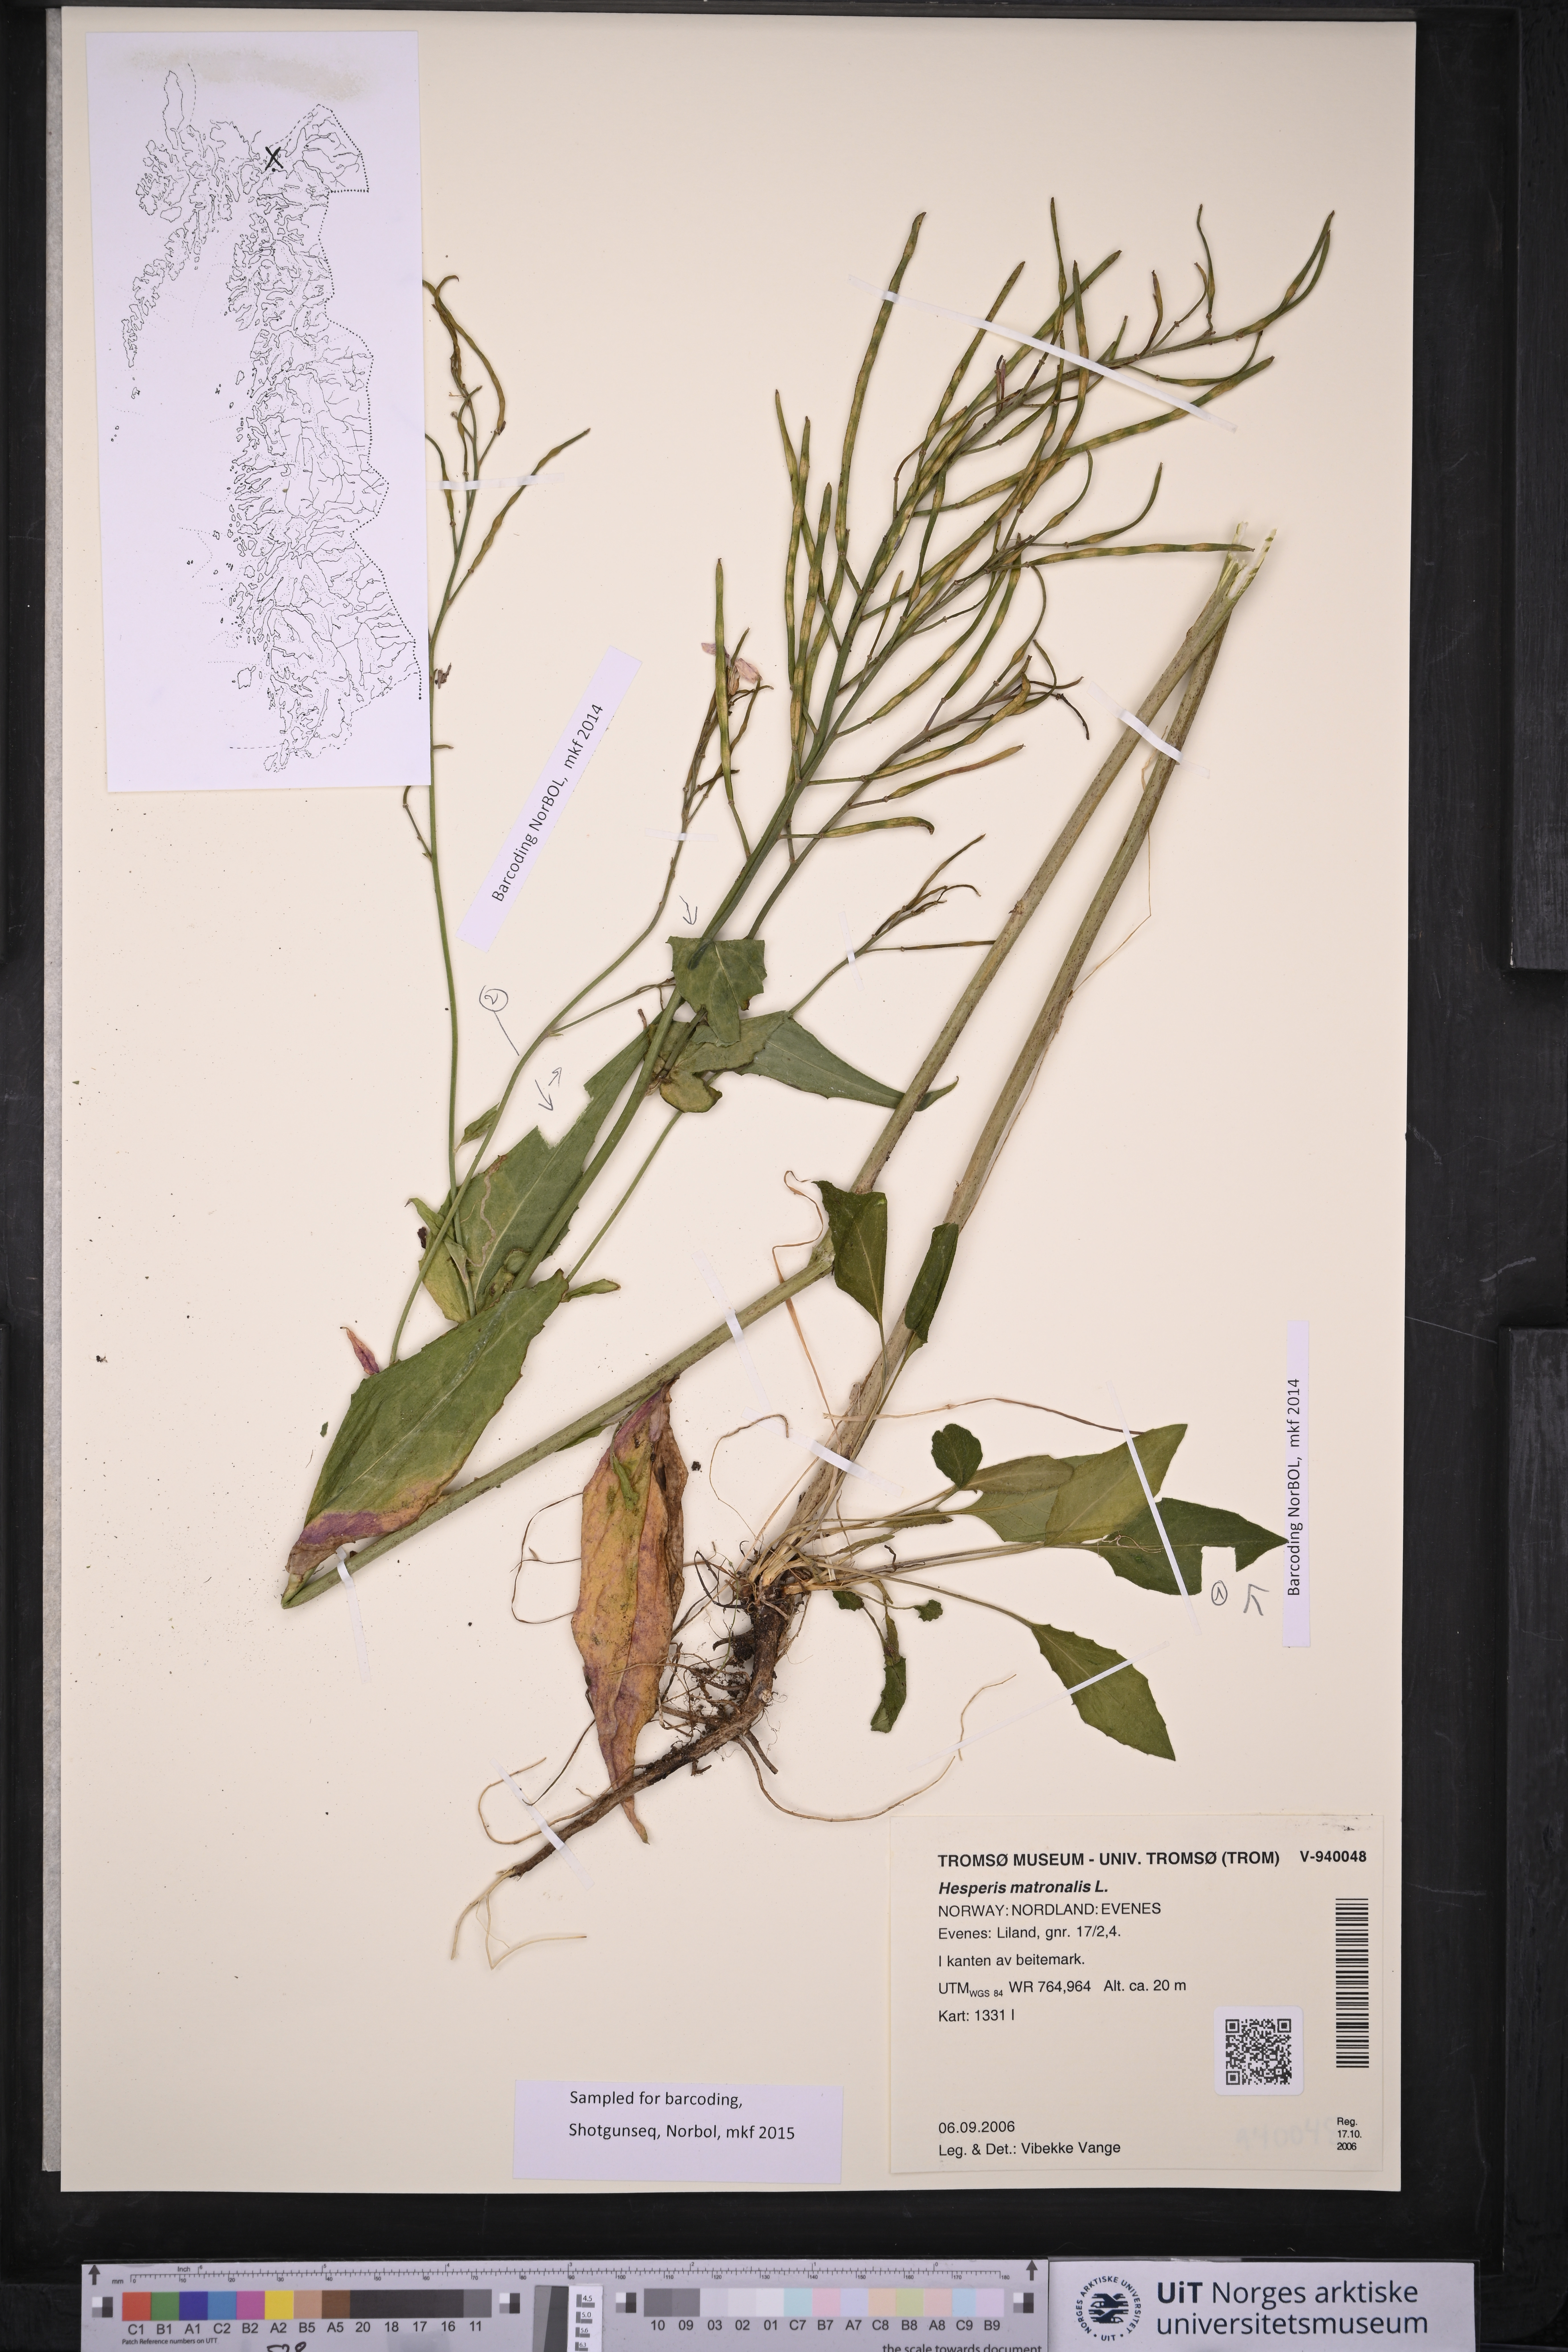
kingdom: Plantae
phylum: Tracheophyta
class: Magnoliopsida
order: Brassicales
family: Brassicaceae
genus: Hesperis
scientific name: Hesperis matronalis
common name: Dame's-violet
